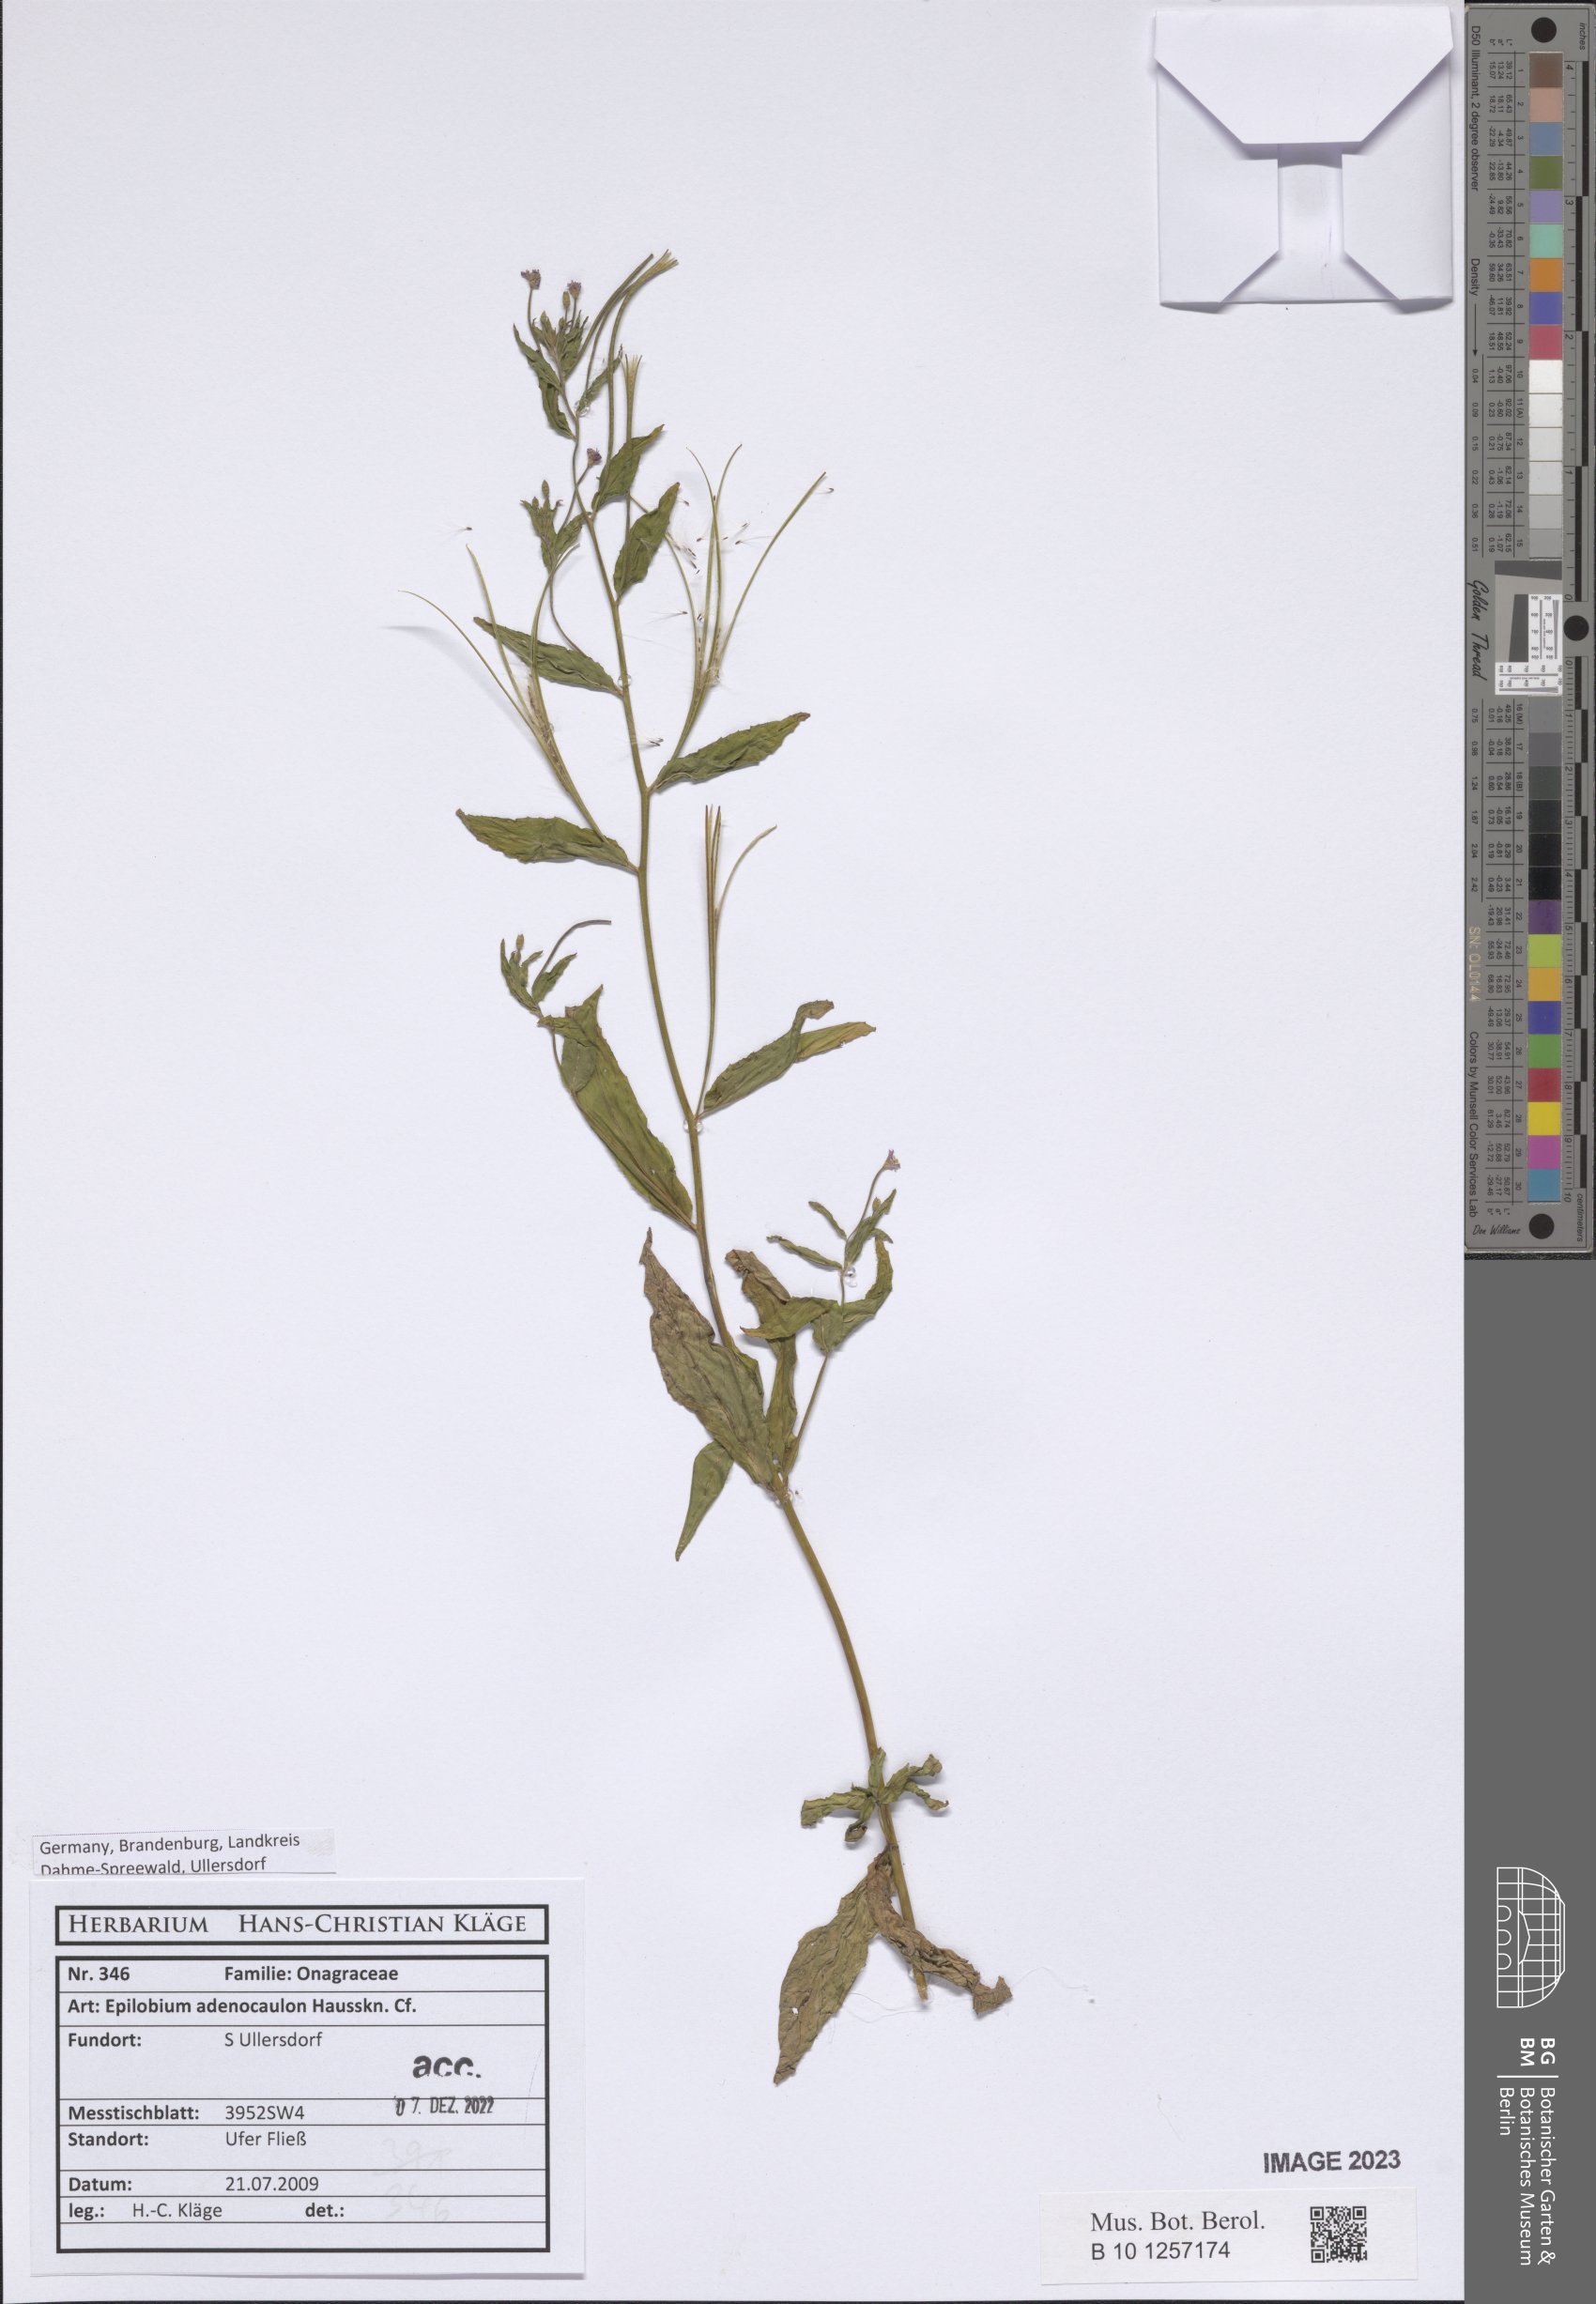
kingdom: Plantae
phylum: Tracheophyta
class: Magnoliopsida
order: Myrtales
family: Onagraceae
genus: Epilobium
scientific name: Epilobium ciliatum
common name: American willowherb
